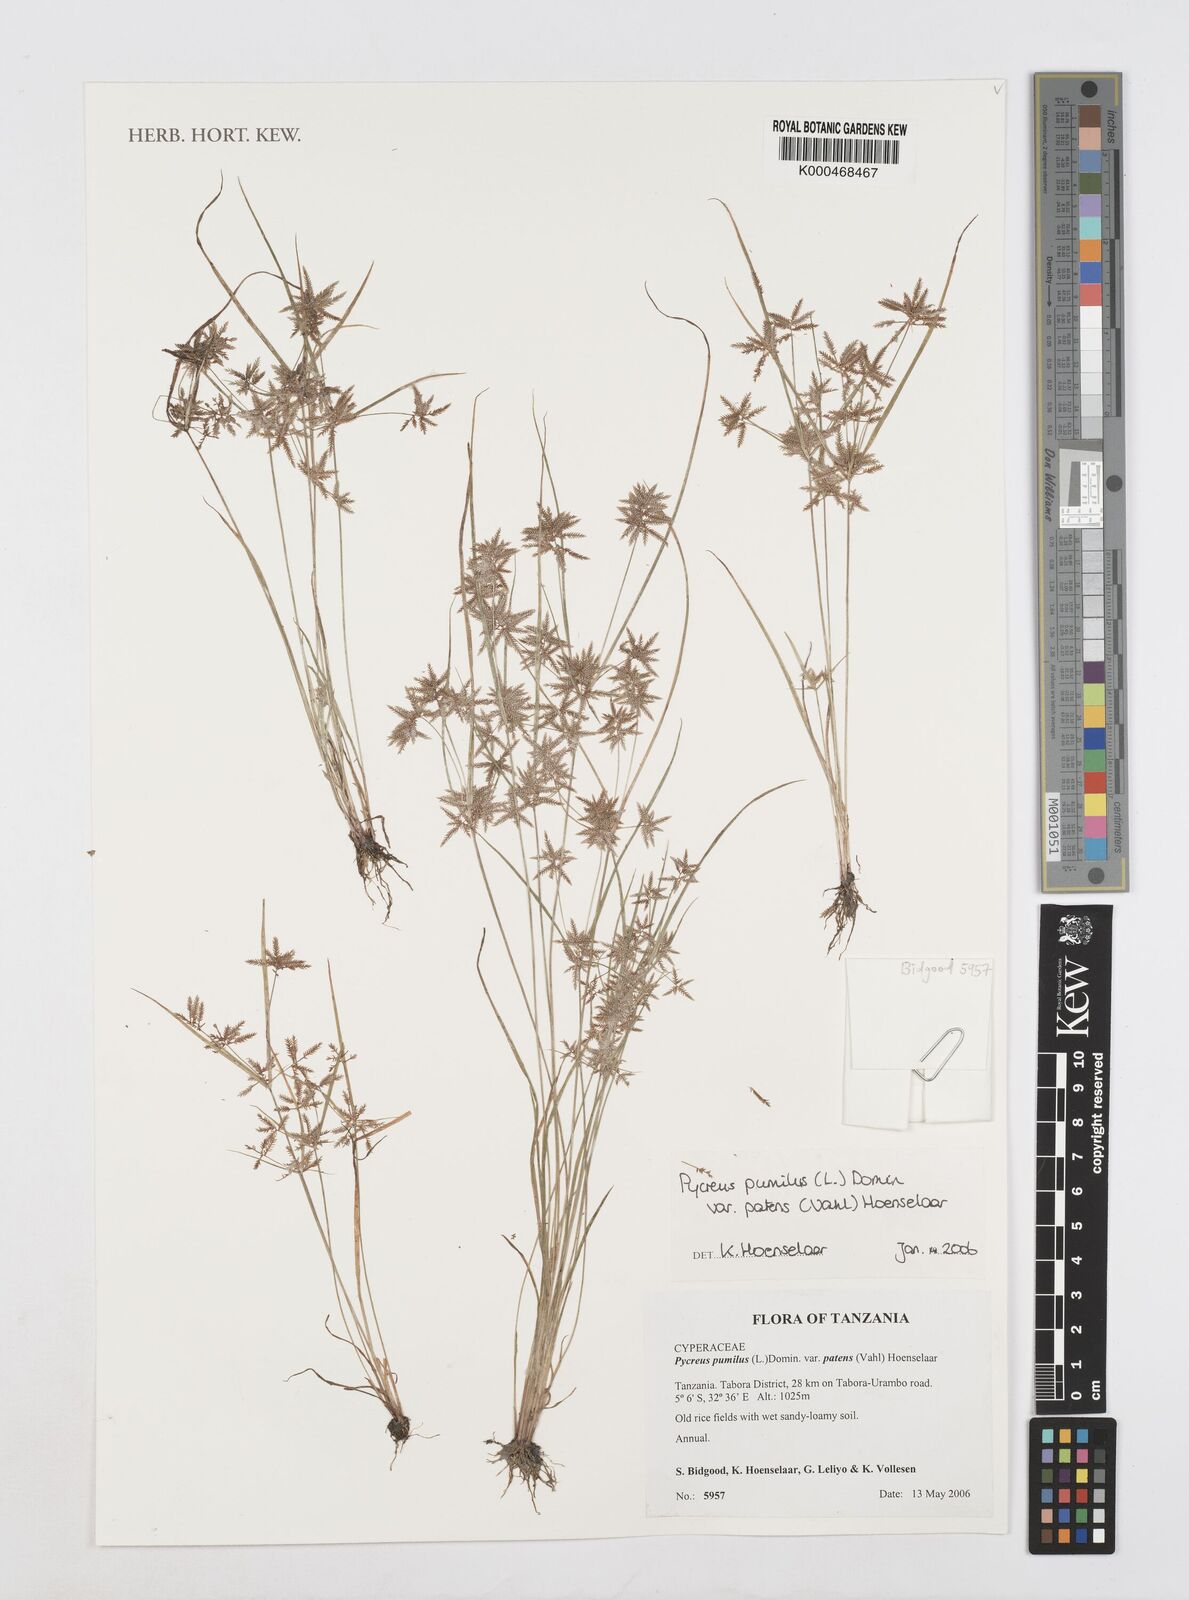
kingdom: Plantae
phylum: Tracheophyta
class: Liliopsida
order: Poales
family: Cyperaceae
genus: Cyperus
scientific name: Cyperus
